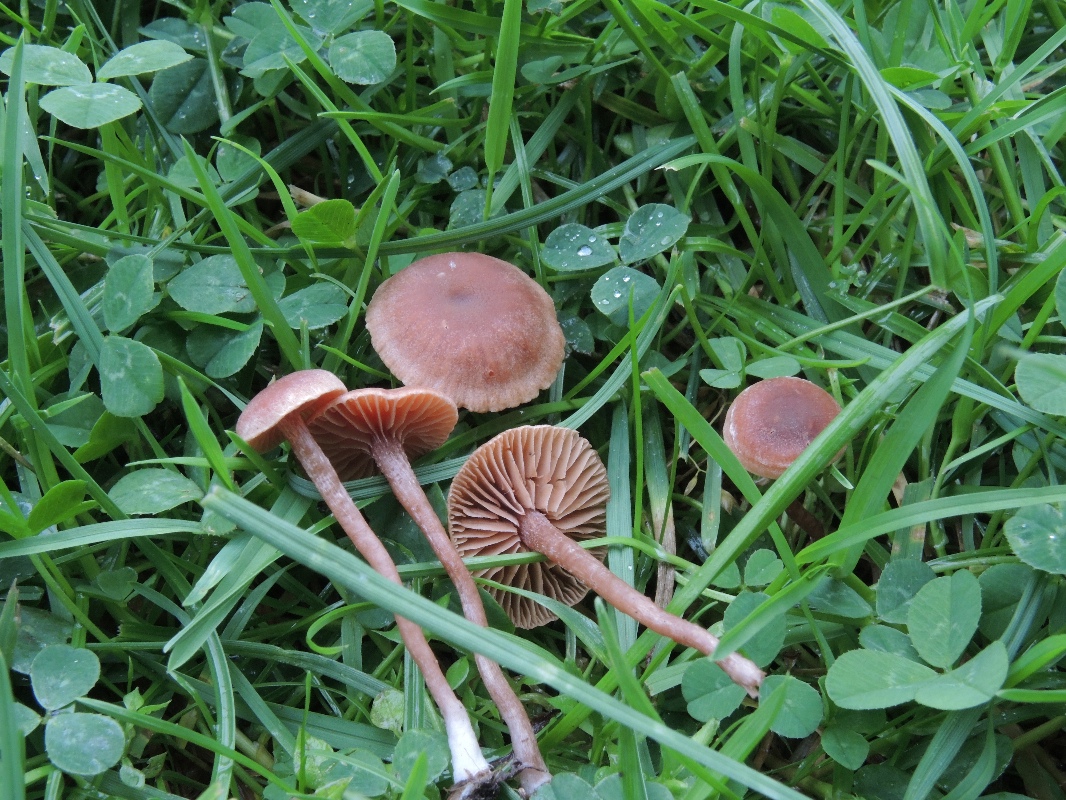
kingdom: Fungi
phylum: Basidiomycota
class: Agaricomycetes
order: Agaricales
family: Tubariaceae
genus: Tubaria
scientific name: Tubaria furfuracea
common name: kliddet fnughat
